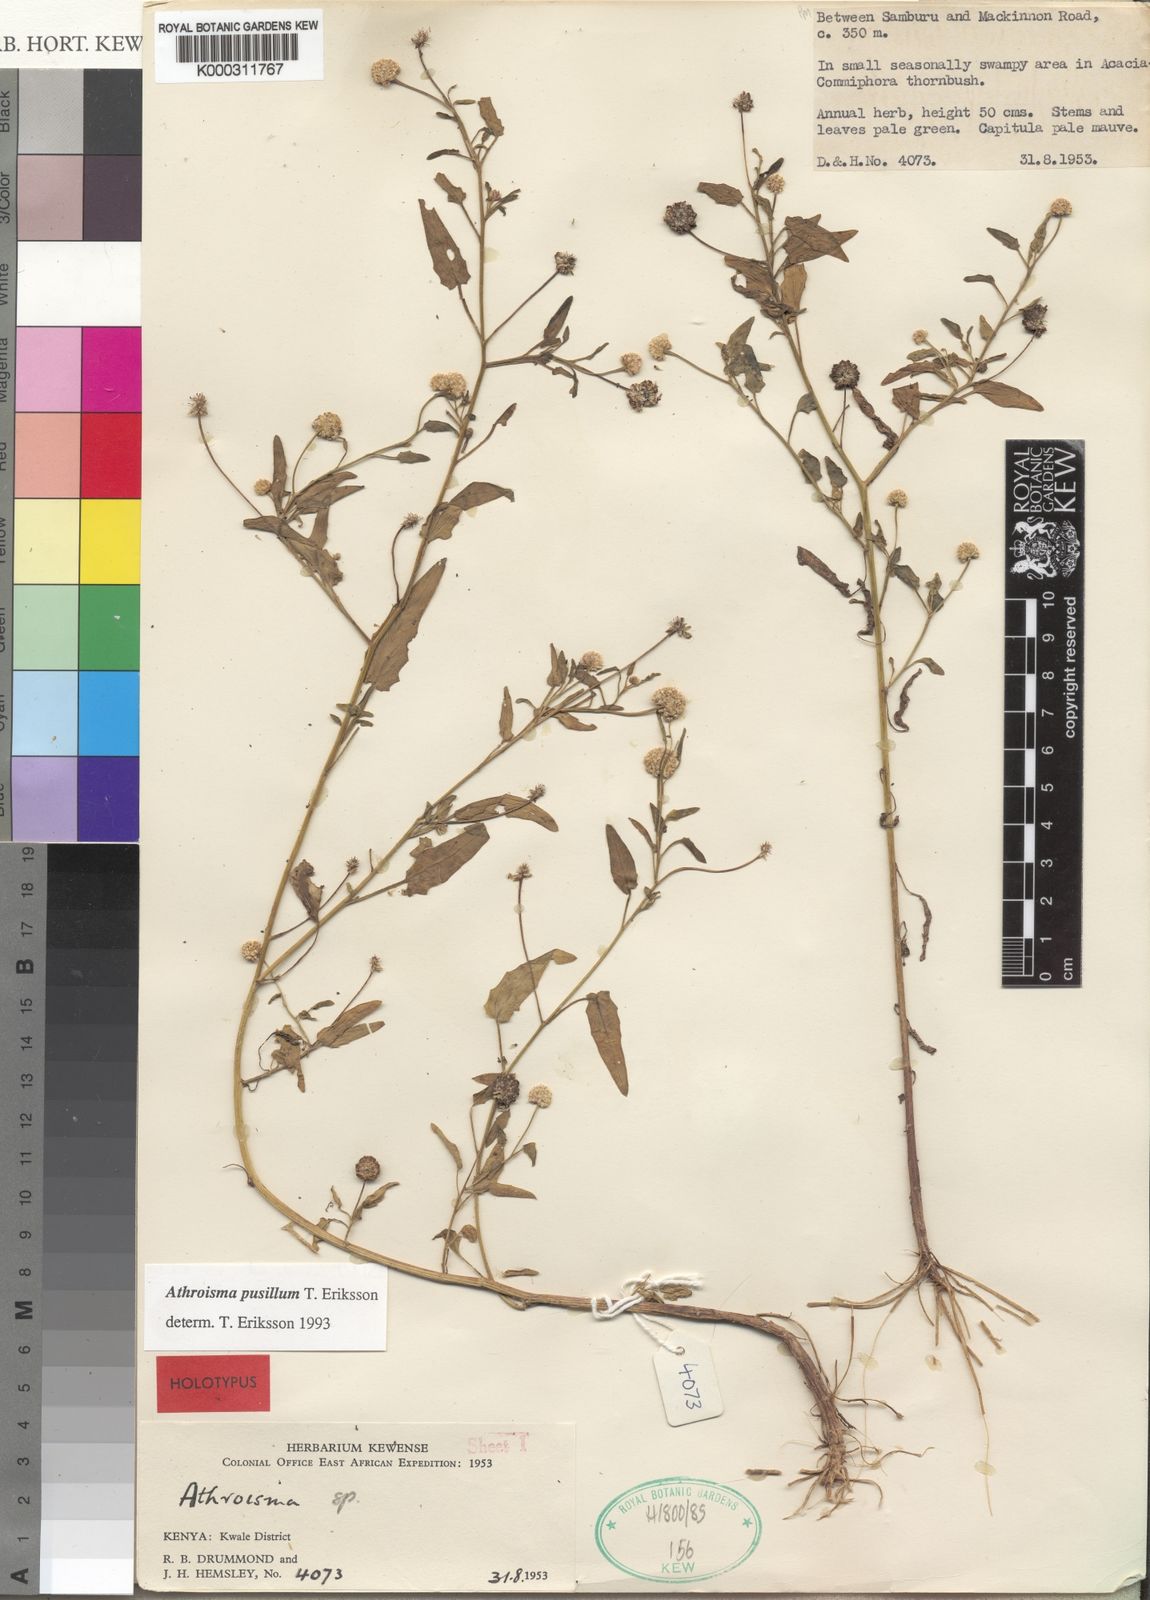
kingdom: Plantae
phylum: Tracheophyta
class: Magnoliopsida
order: Asterales
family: Asteraceae
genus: Athroisma
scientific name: Athroisma pusillum
